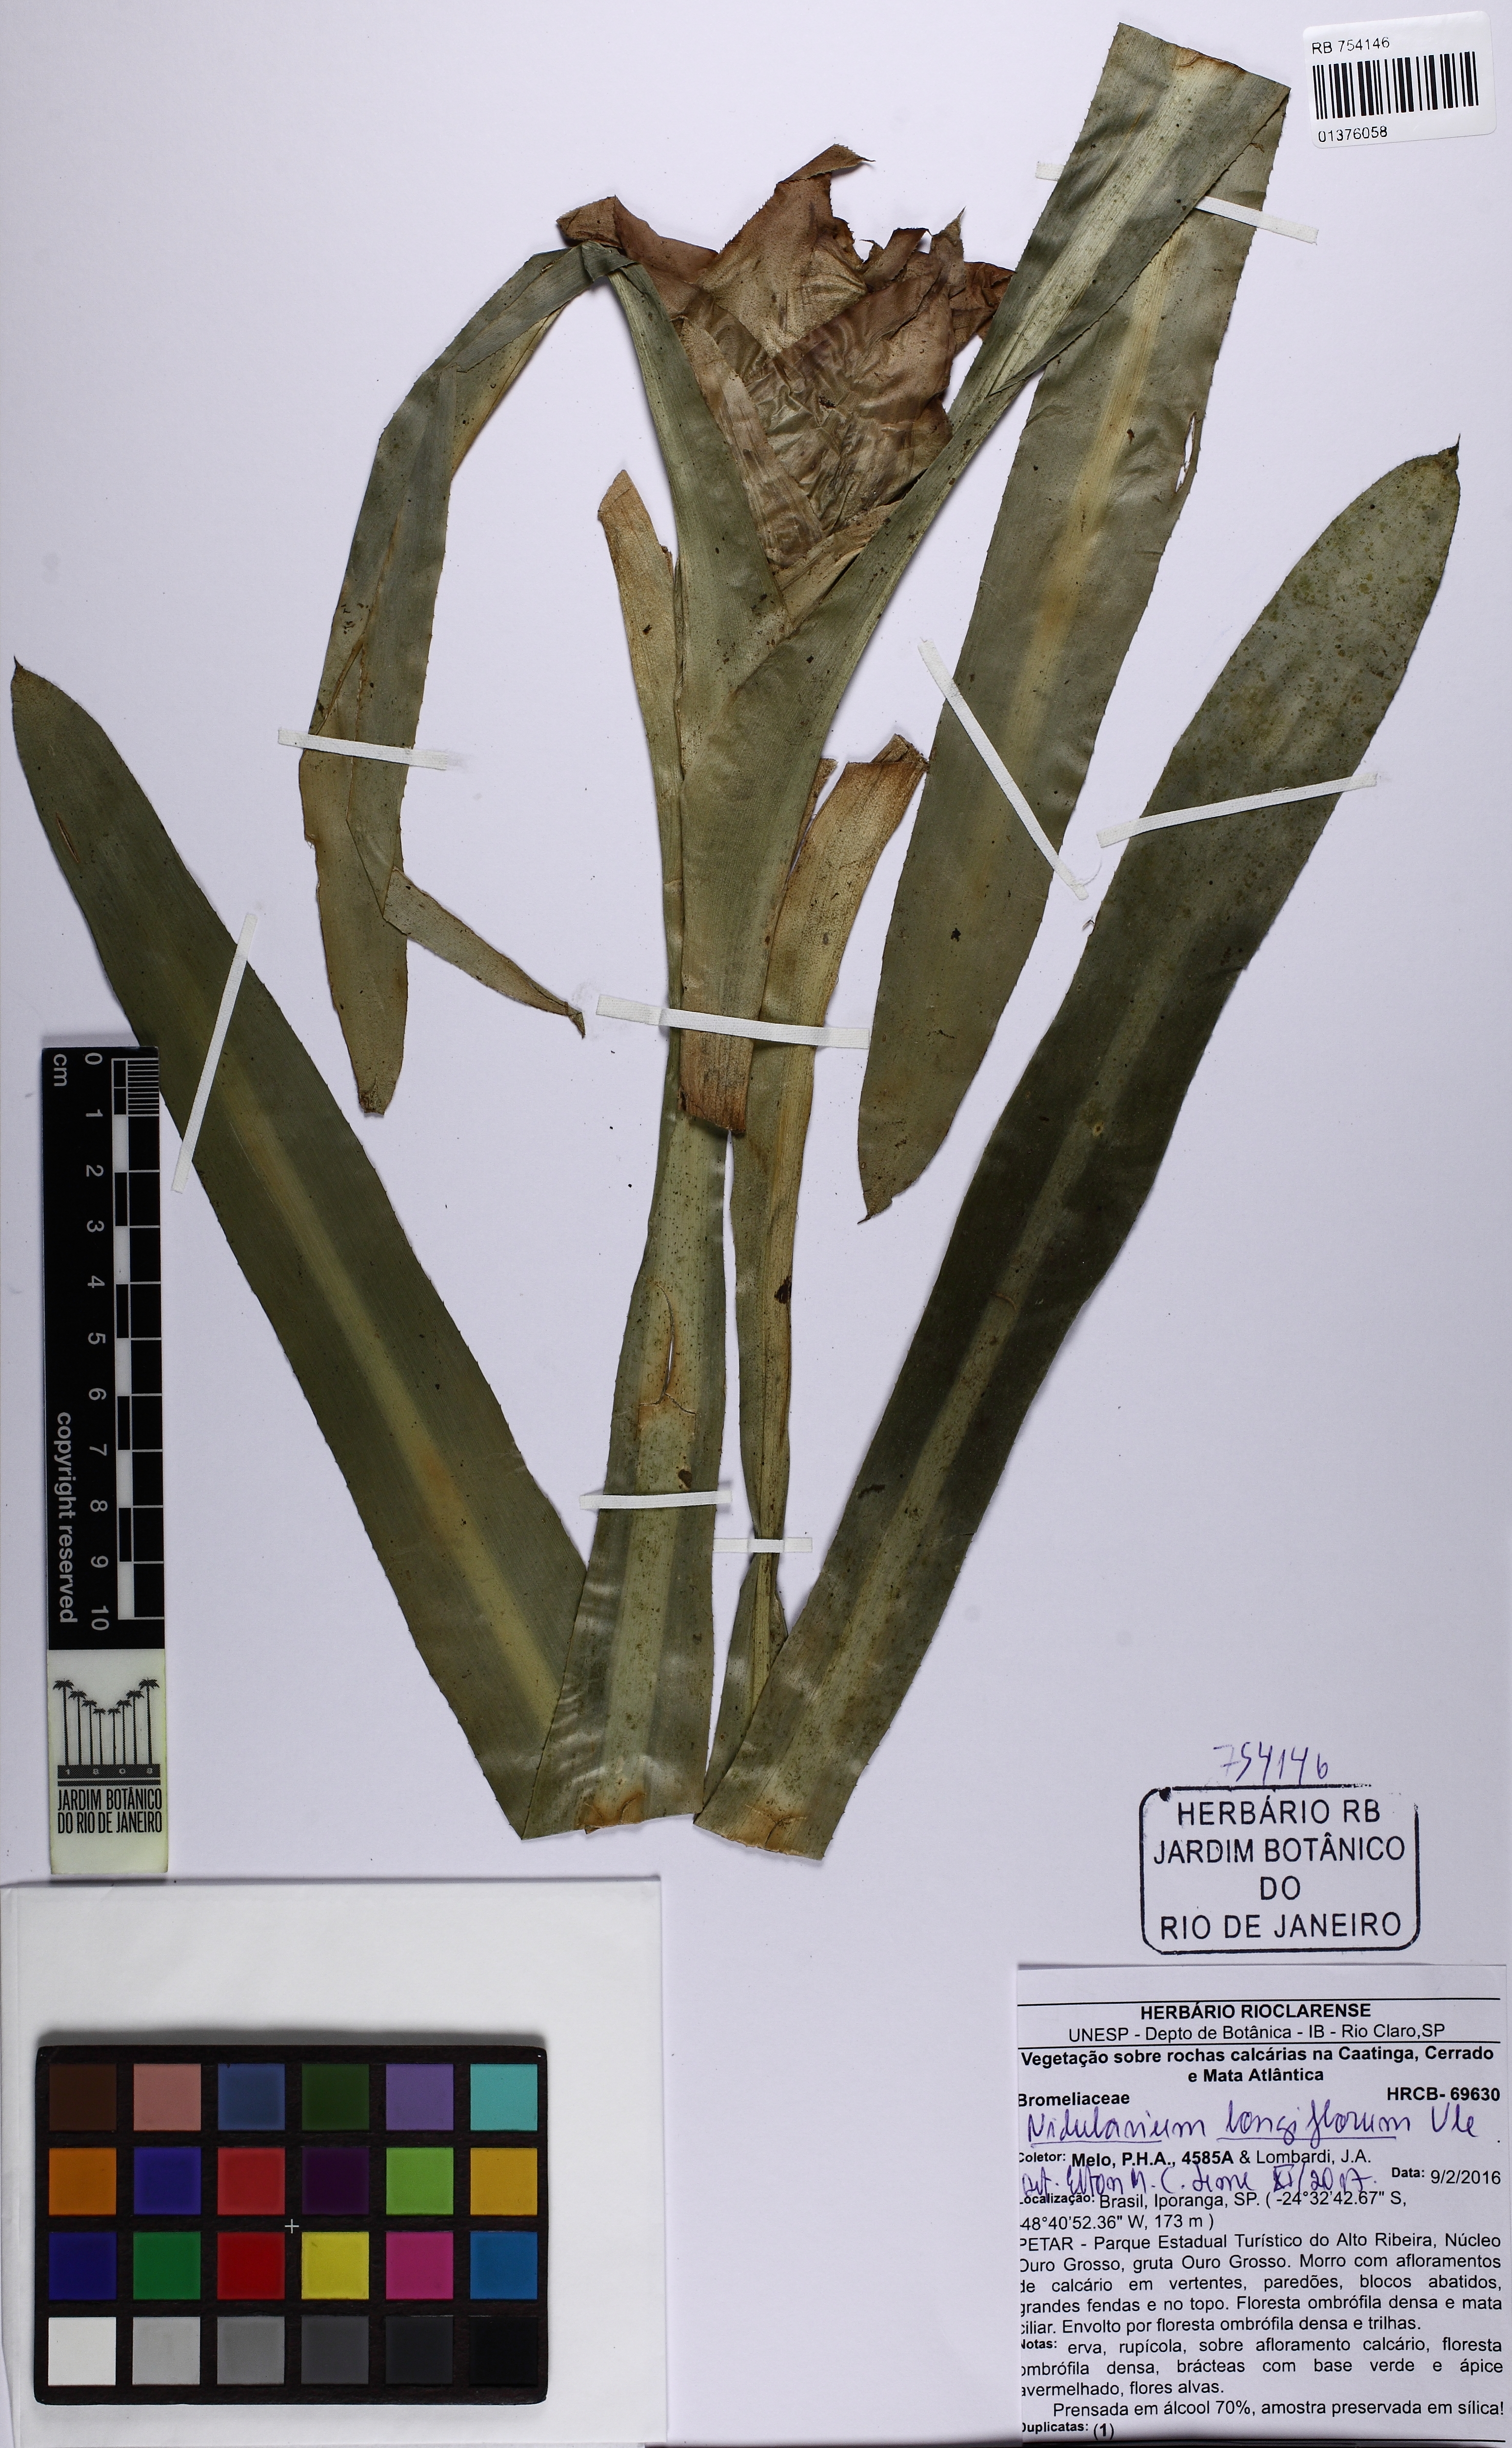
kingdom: Plantae
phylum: Tracheophyta
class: Liliopsida
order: Poales
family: Bromeliaceae
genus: Nidularium
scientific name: Nidularium longiflorum
